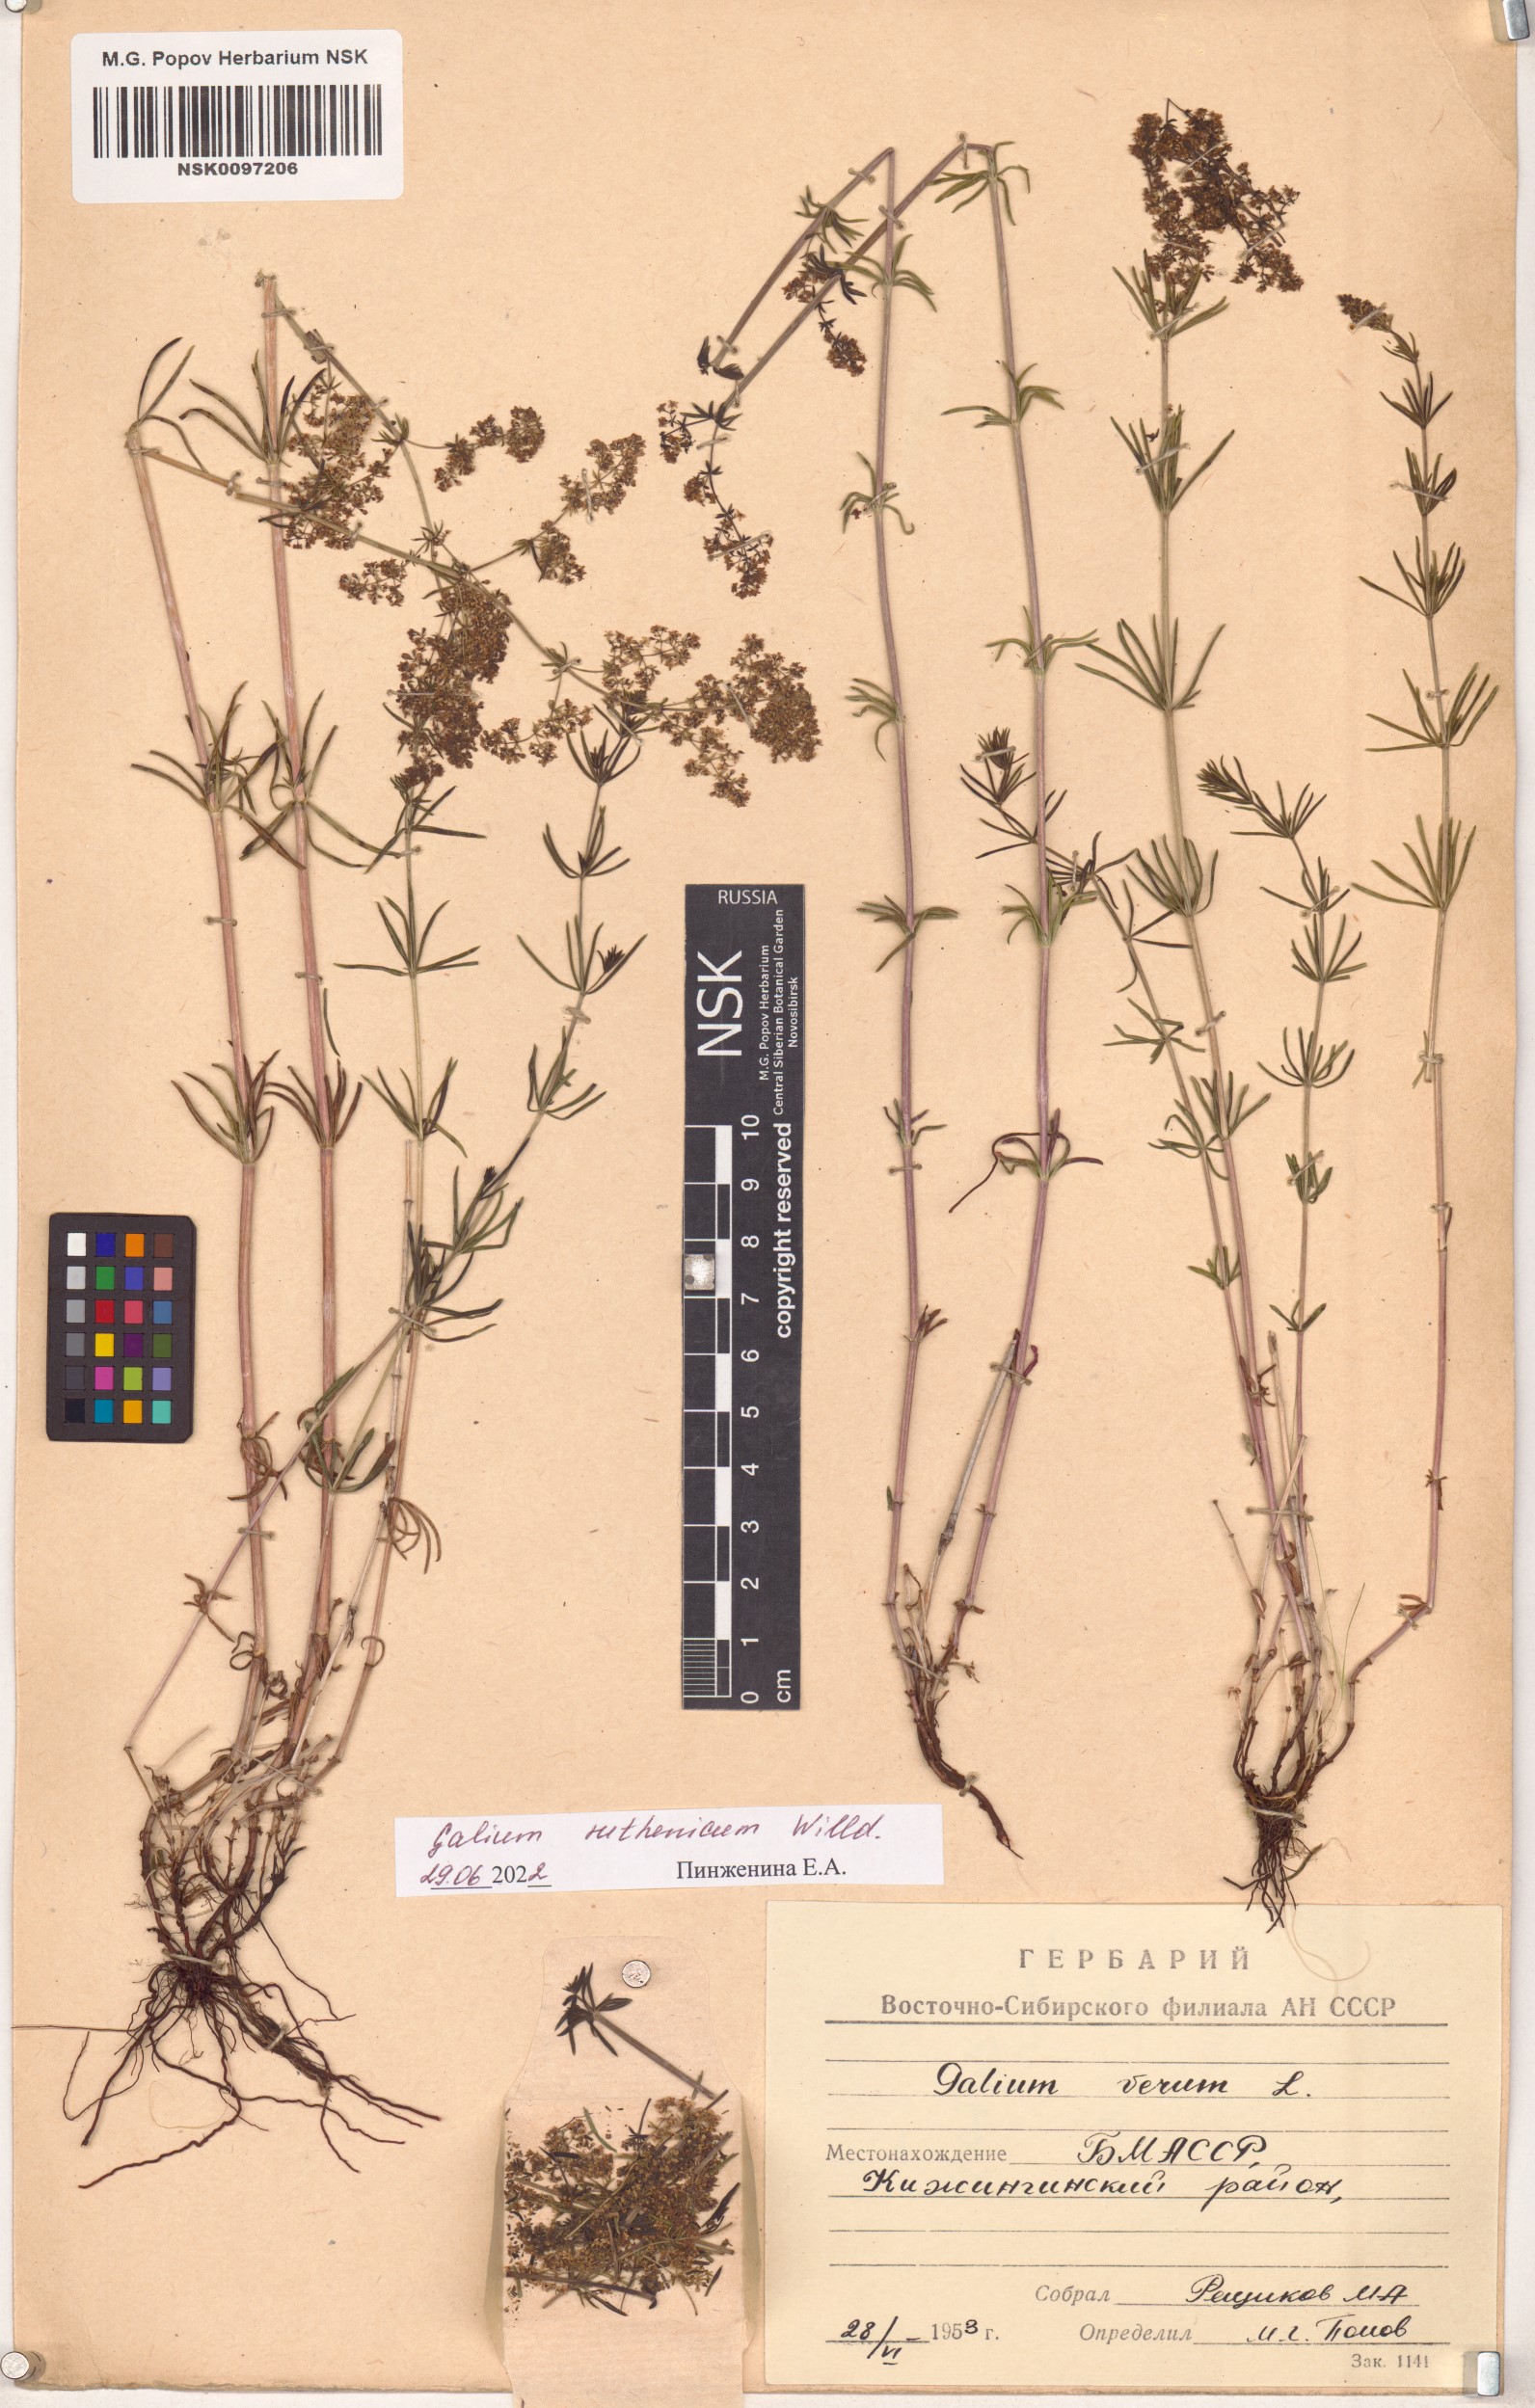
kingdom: Plantae
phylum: Tracheophyta
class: Magnoliopsida
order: Gentianales
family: Rubiaceae
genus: Galium
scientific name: Galium verum
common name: Lady's bedstraw
